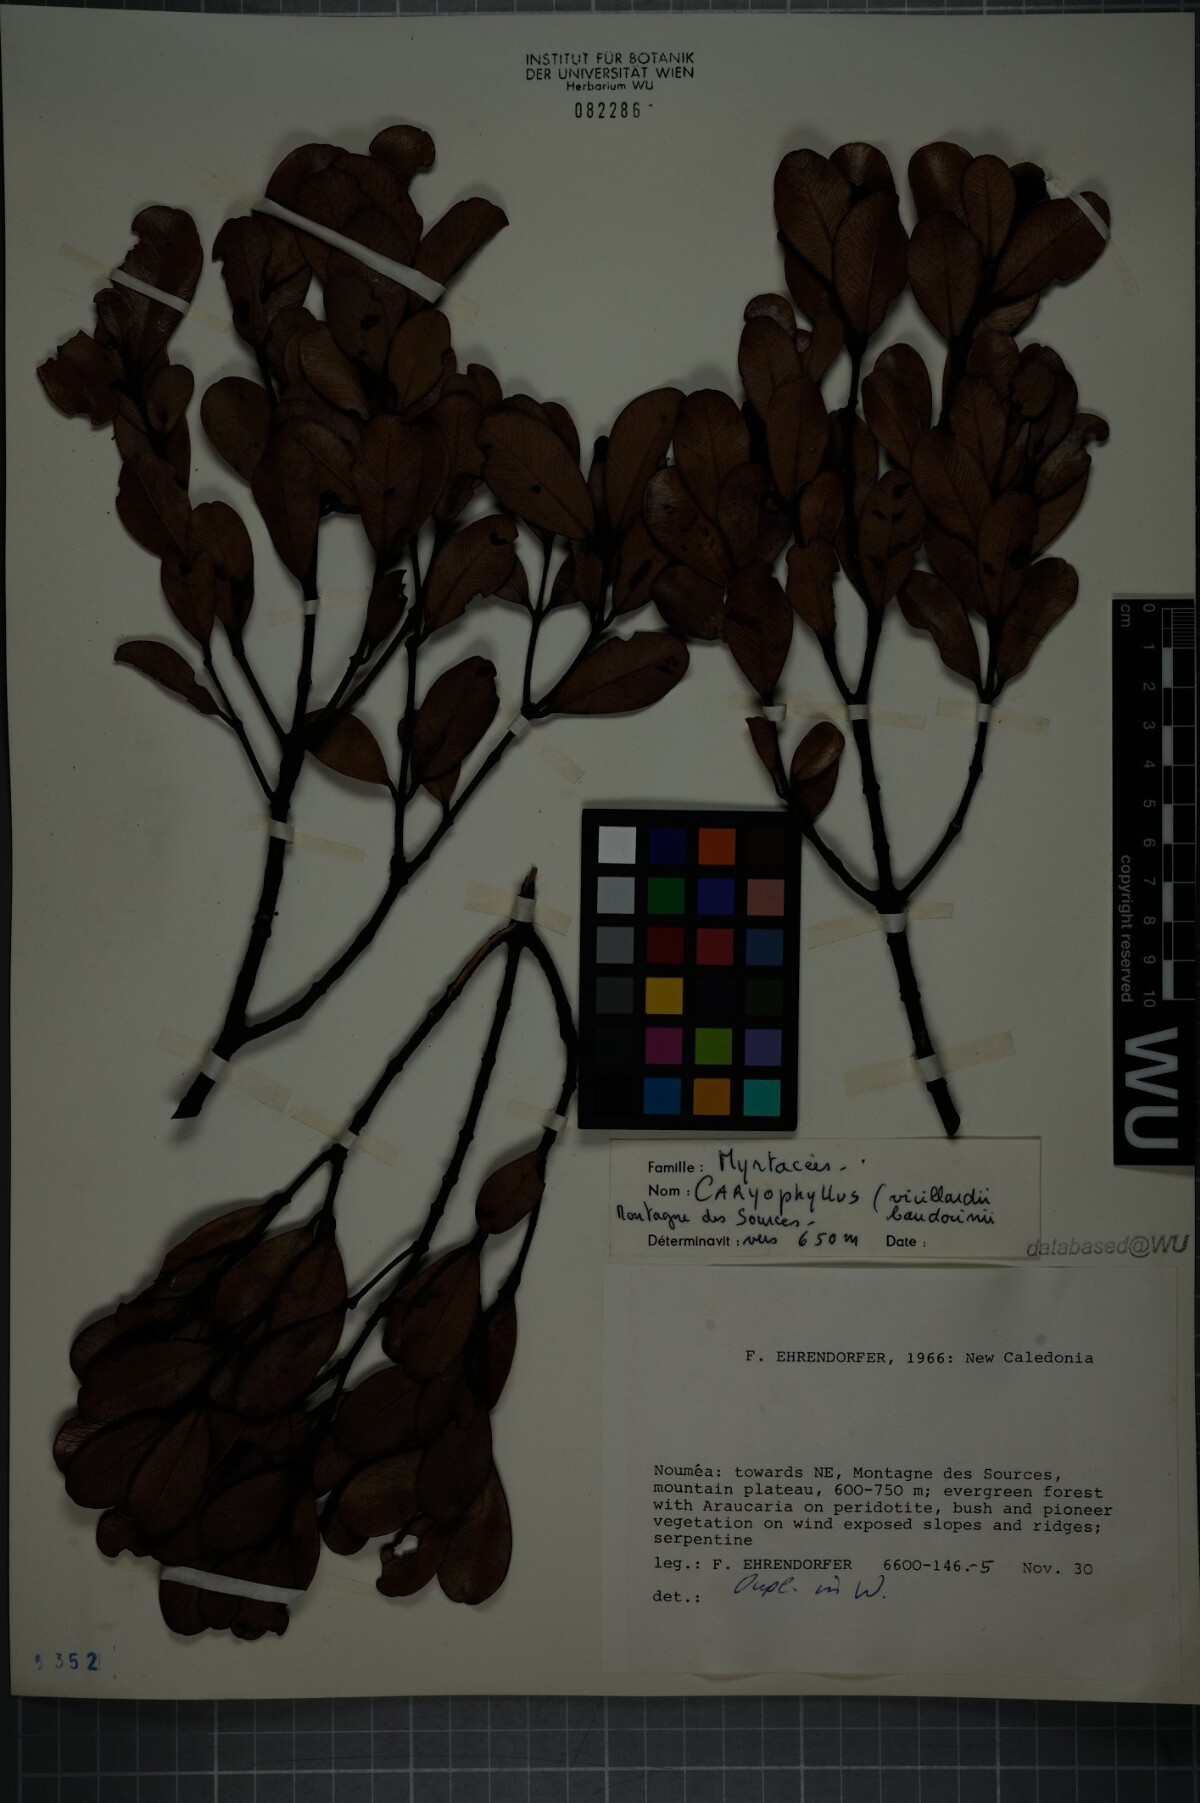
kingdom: Plantae
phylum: Tracheophyta
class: Magnoliopsida
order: Myrtales
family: Myrtaceae
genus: Syzygium
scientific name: Syzygium baladense
